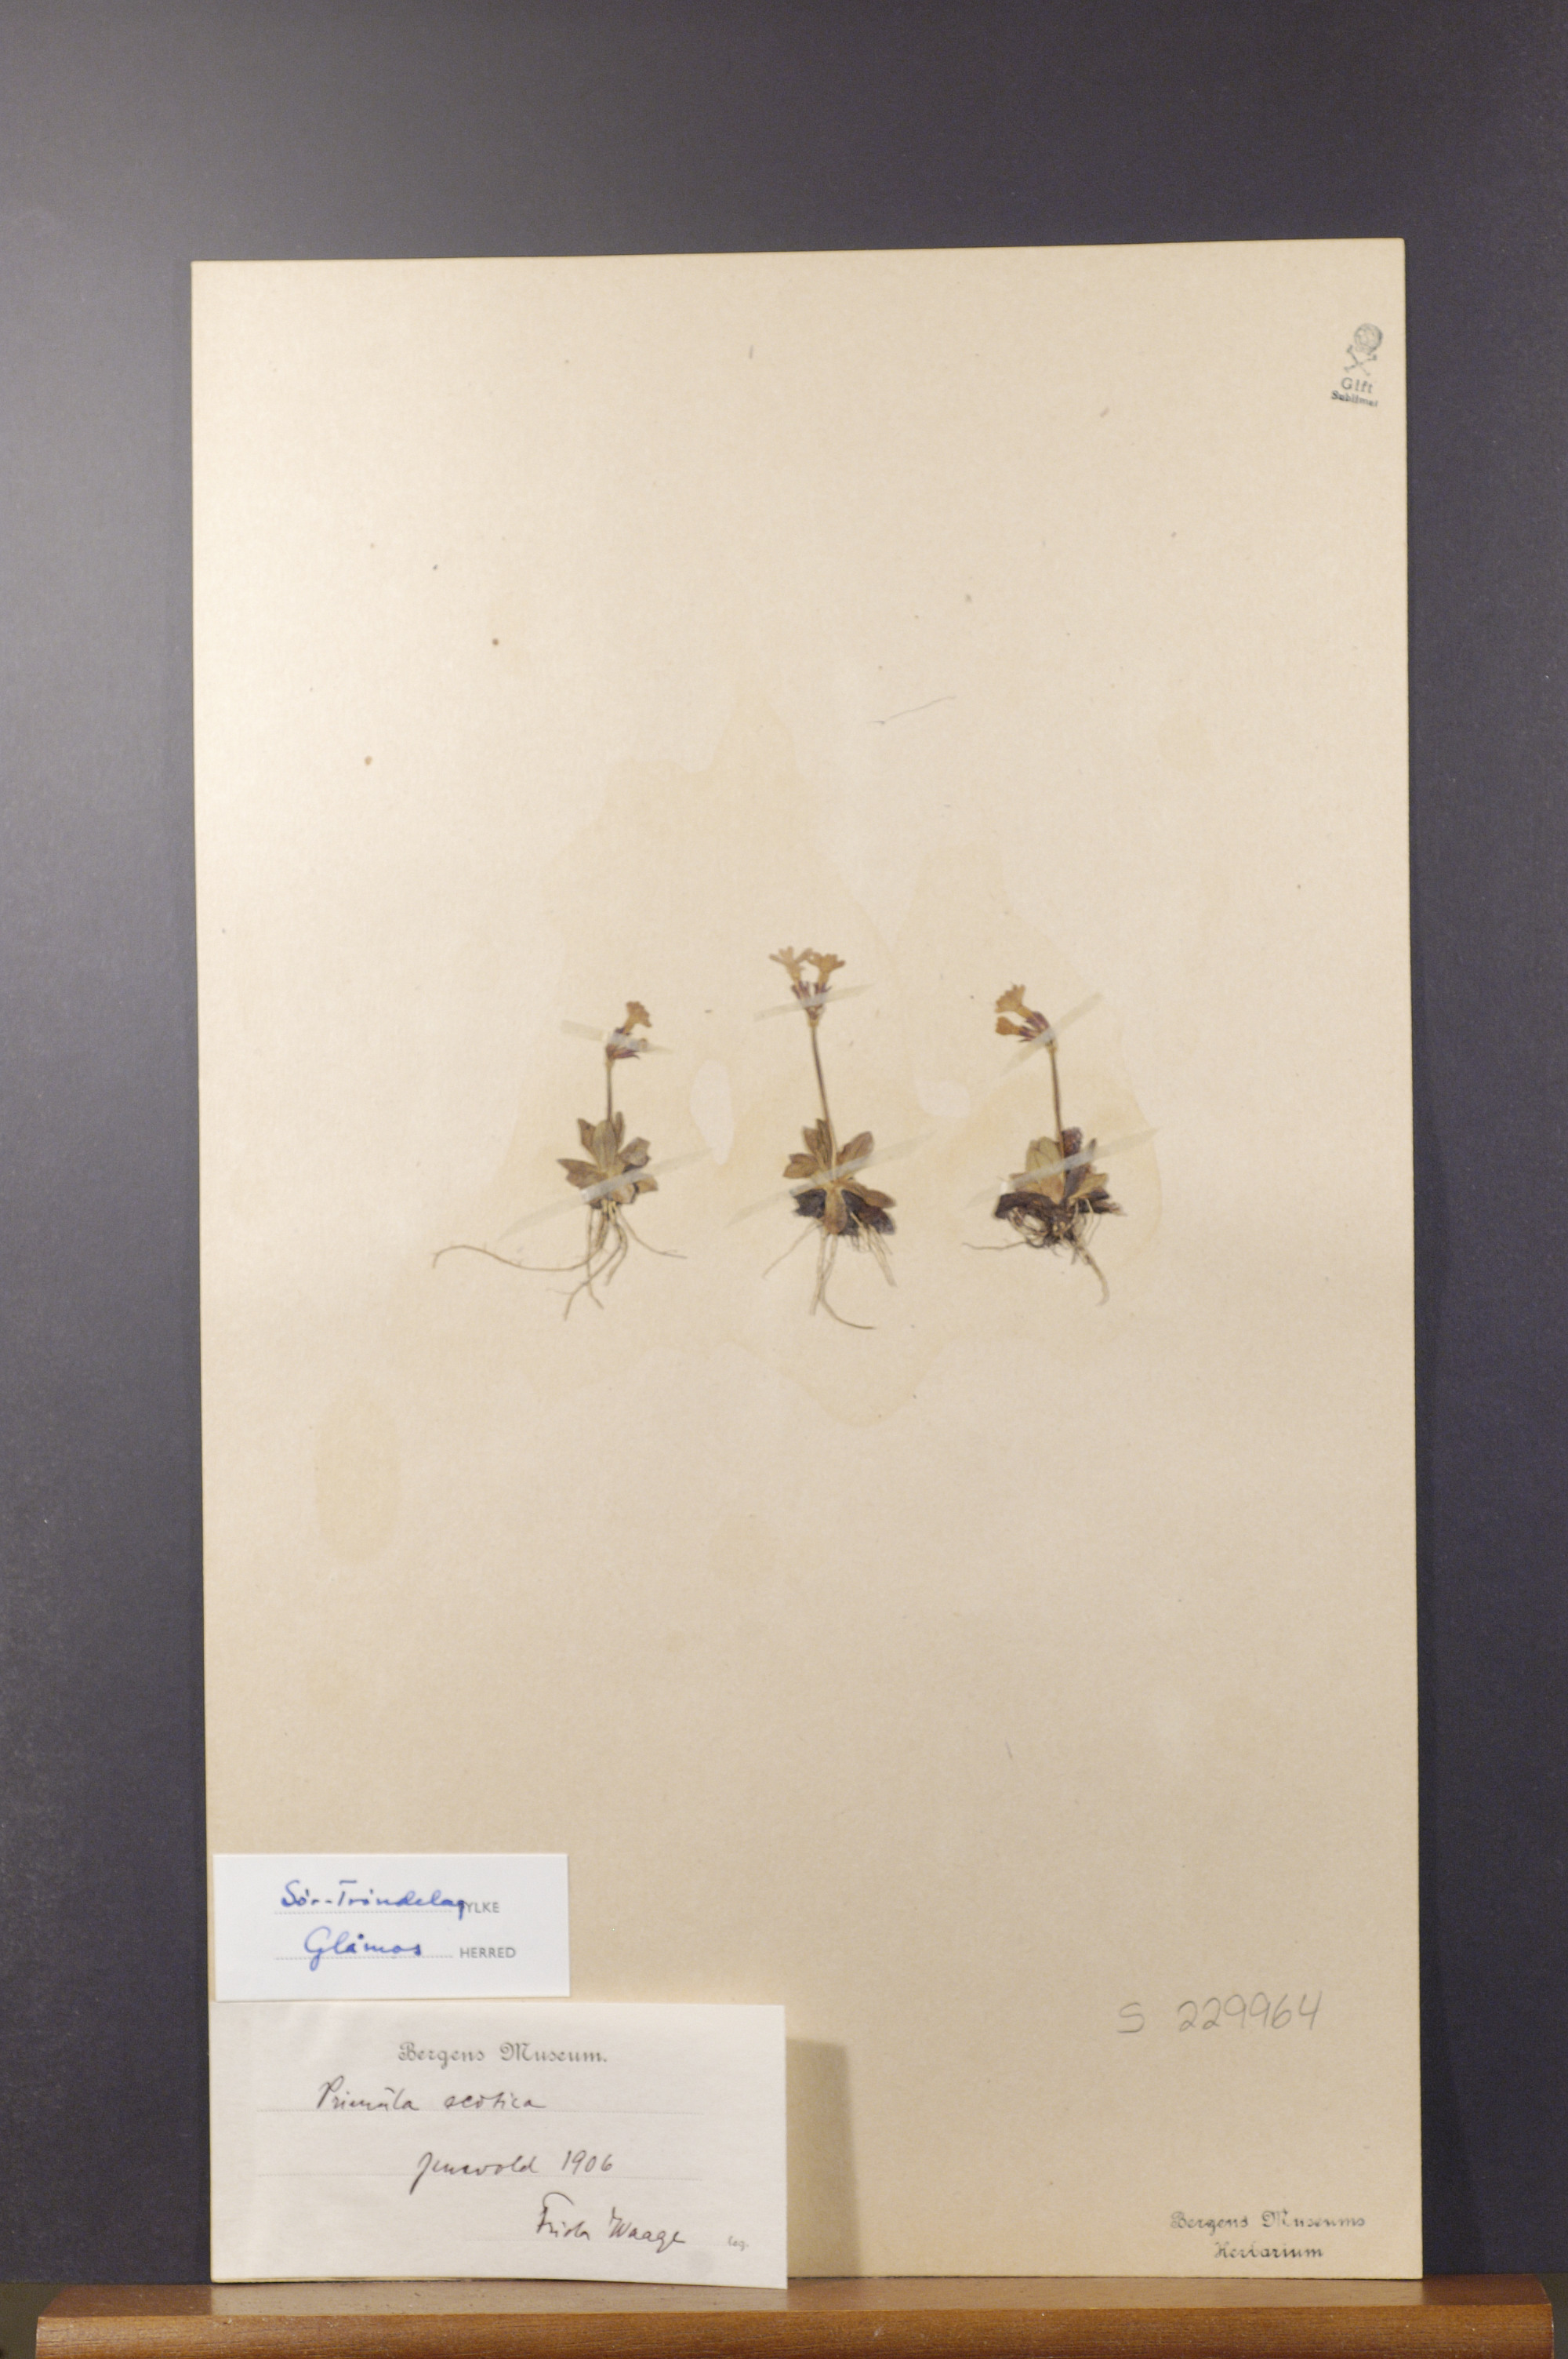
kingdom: Plantae
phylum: Tracheophyta
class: Magnoliopsida
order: Ericales
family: Primulaceae
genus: Primula
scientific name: Primula scandinavica
